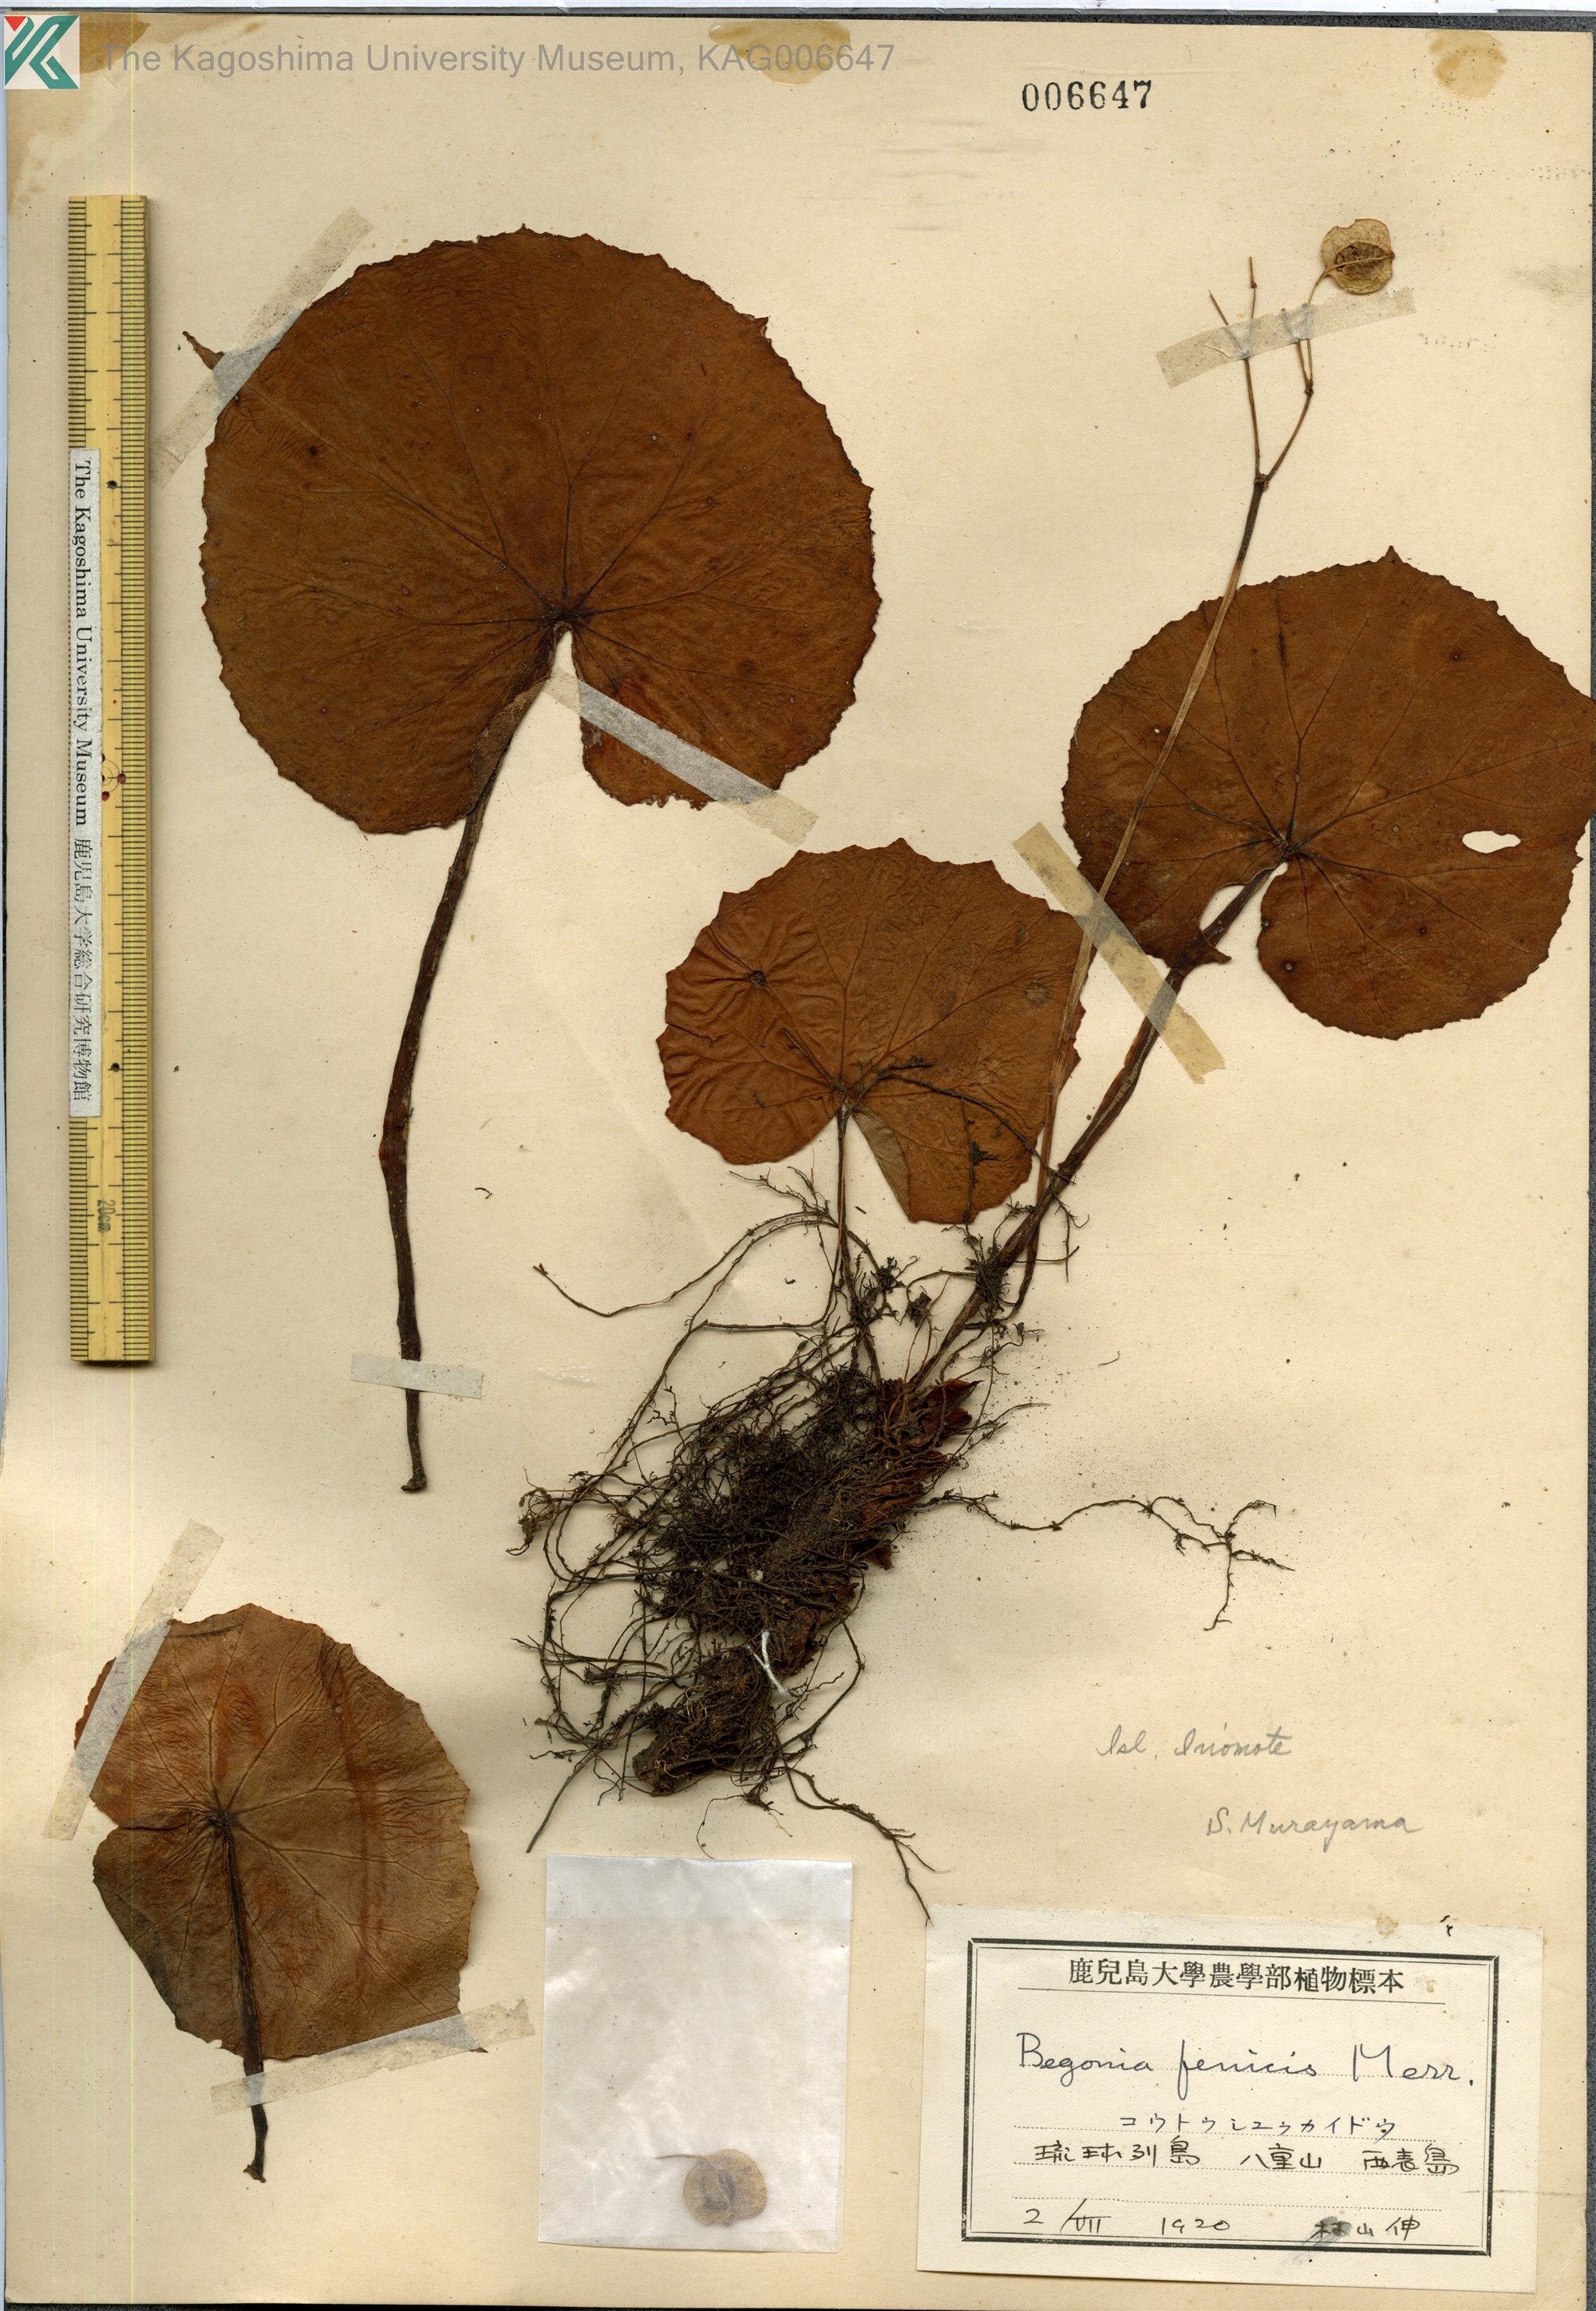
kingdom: Plantae
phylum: Tracheophyta
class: Magnoliopsida
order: Cucurbitales
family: Begoniaceae
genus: Begonia
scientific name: Begonia fenicis
